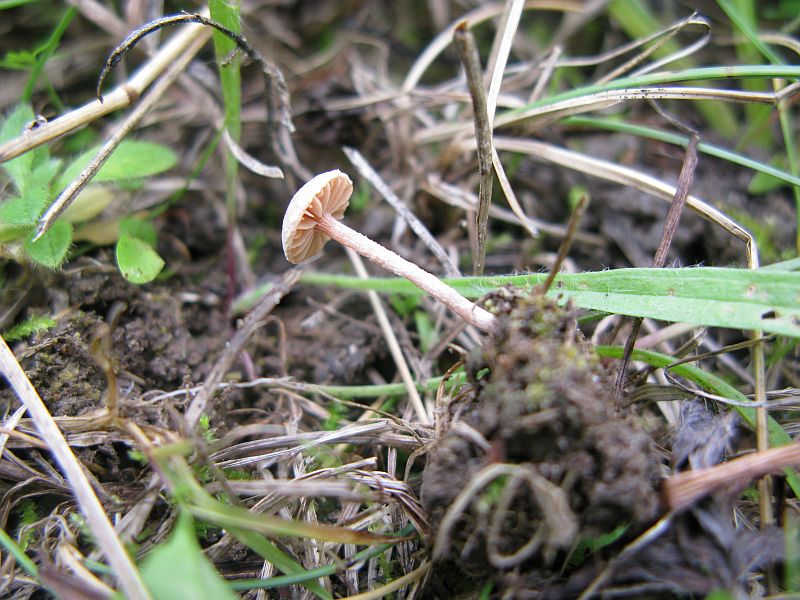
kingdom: Fungi
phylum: Basidiomycota
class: Agaricomycetes
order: Agaricales
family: Tubariaceae
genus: Tubaria
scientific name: Tubaria conspersa
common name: bleg fnughat
